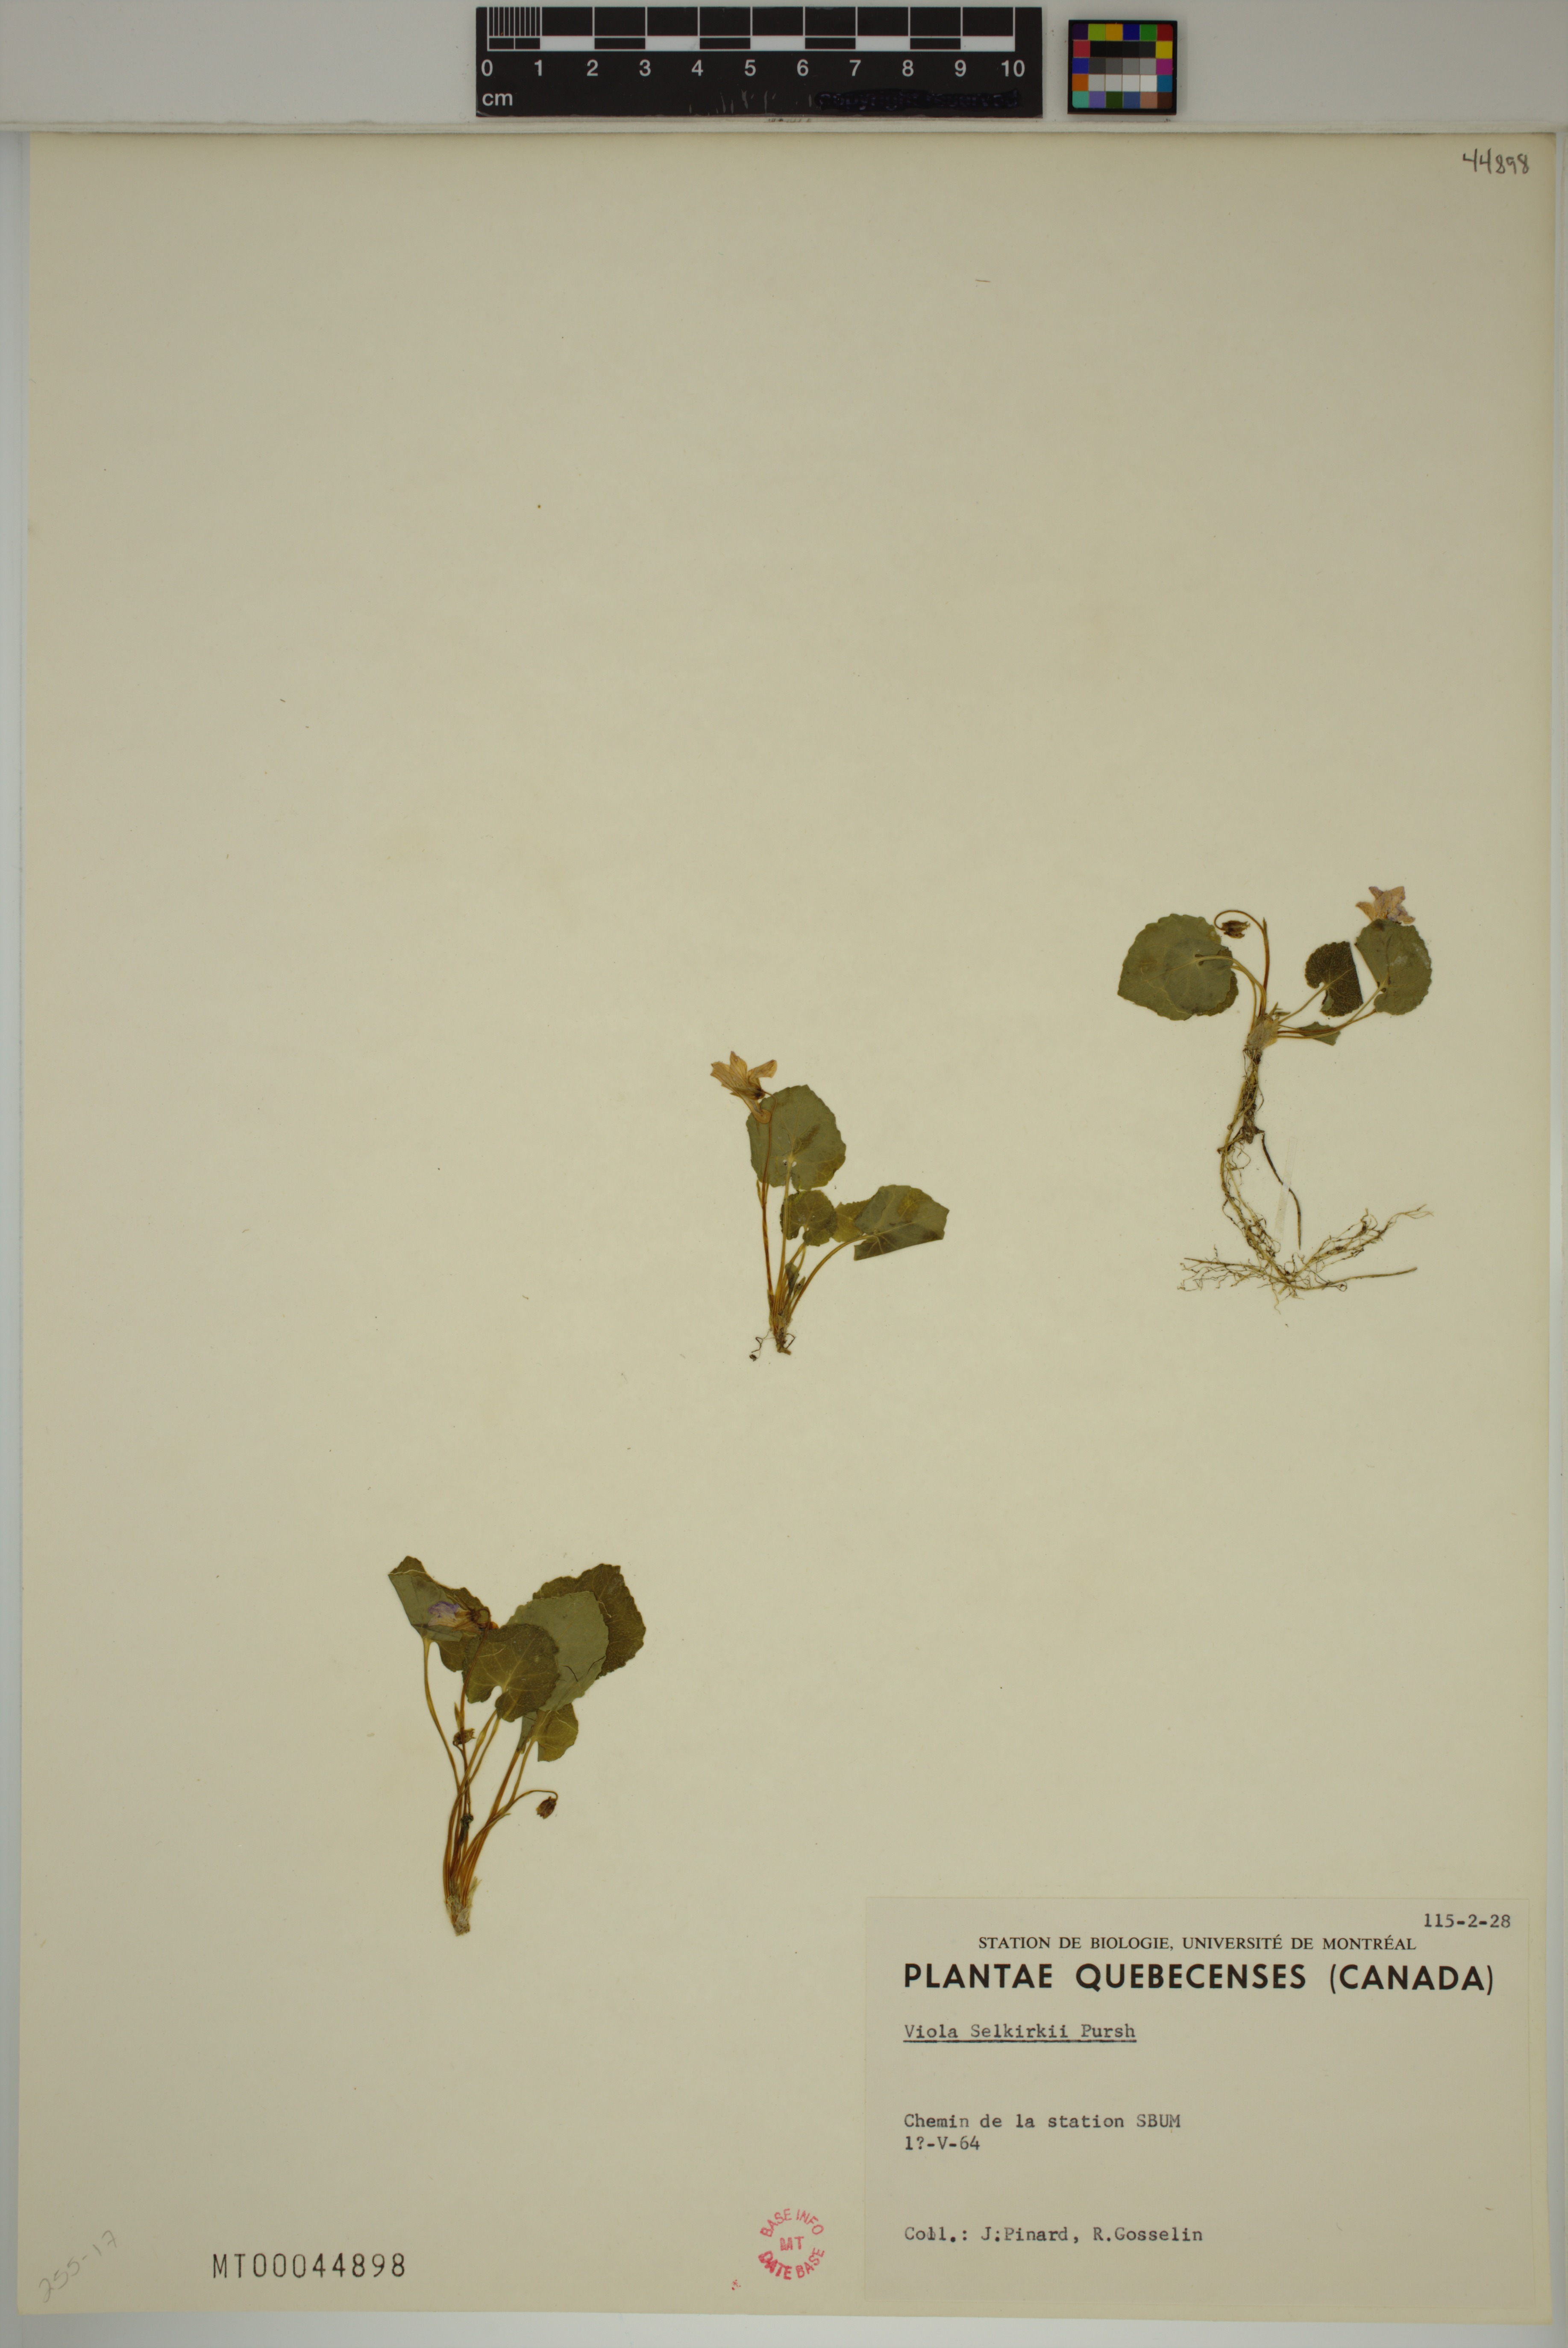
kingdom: Plantae
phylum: Tracheophyta
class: Magnoliopsida
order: Malpighiales
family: Violaceae
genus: Viola
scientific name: Viola selkirkii
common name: Selkirk's violet
